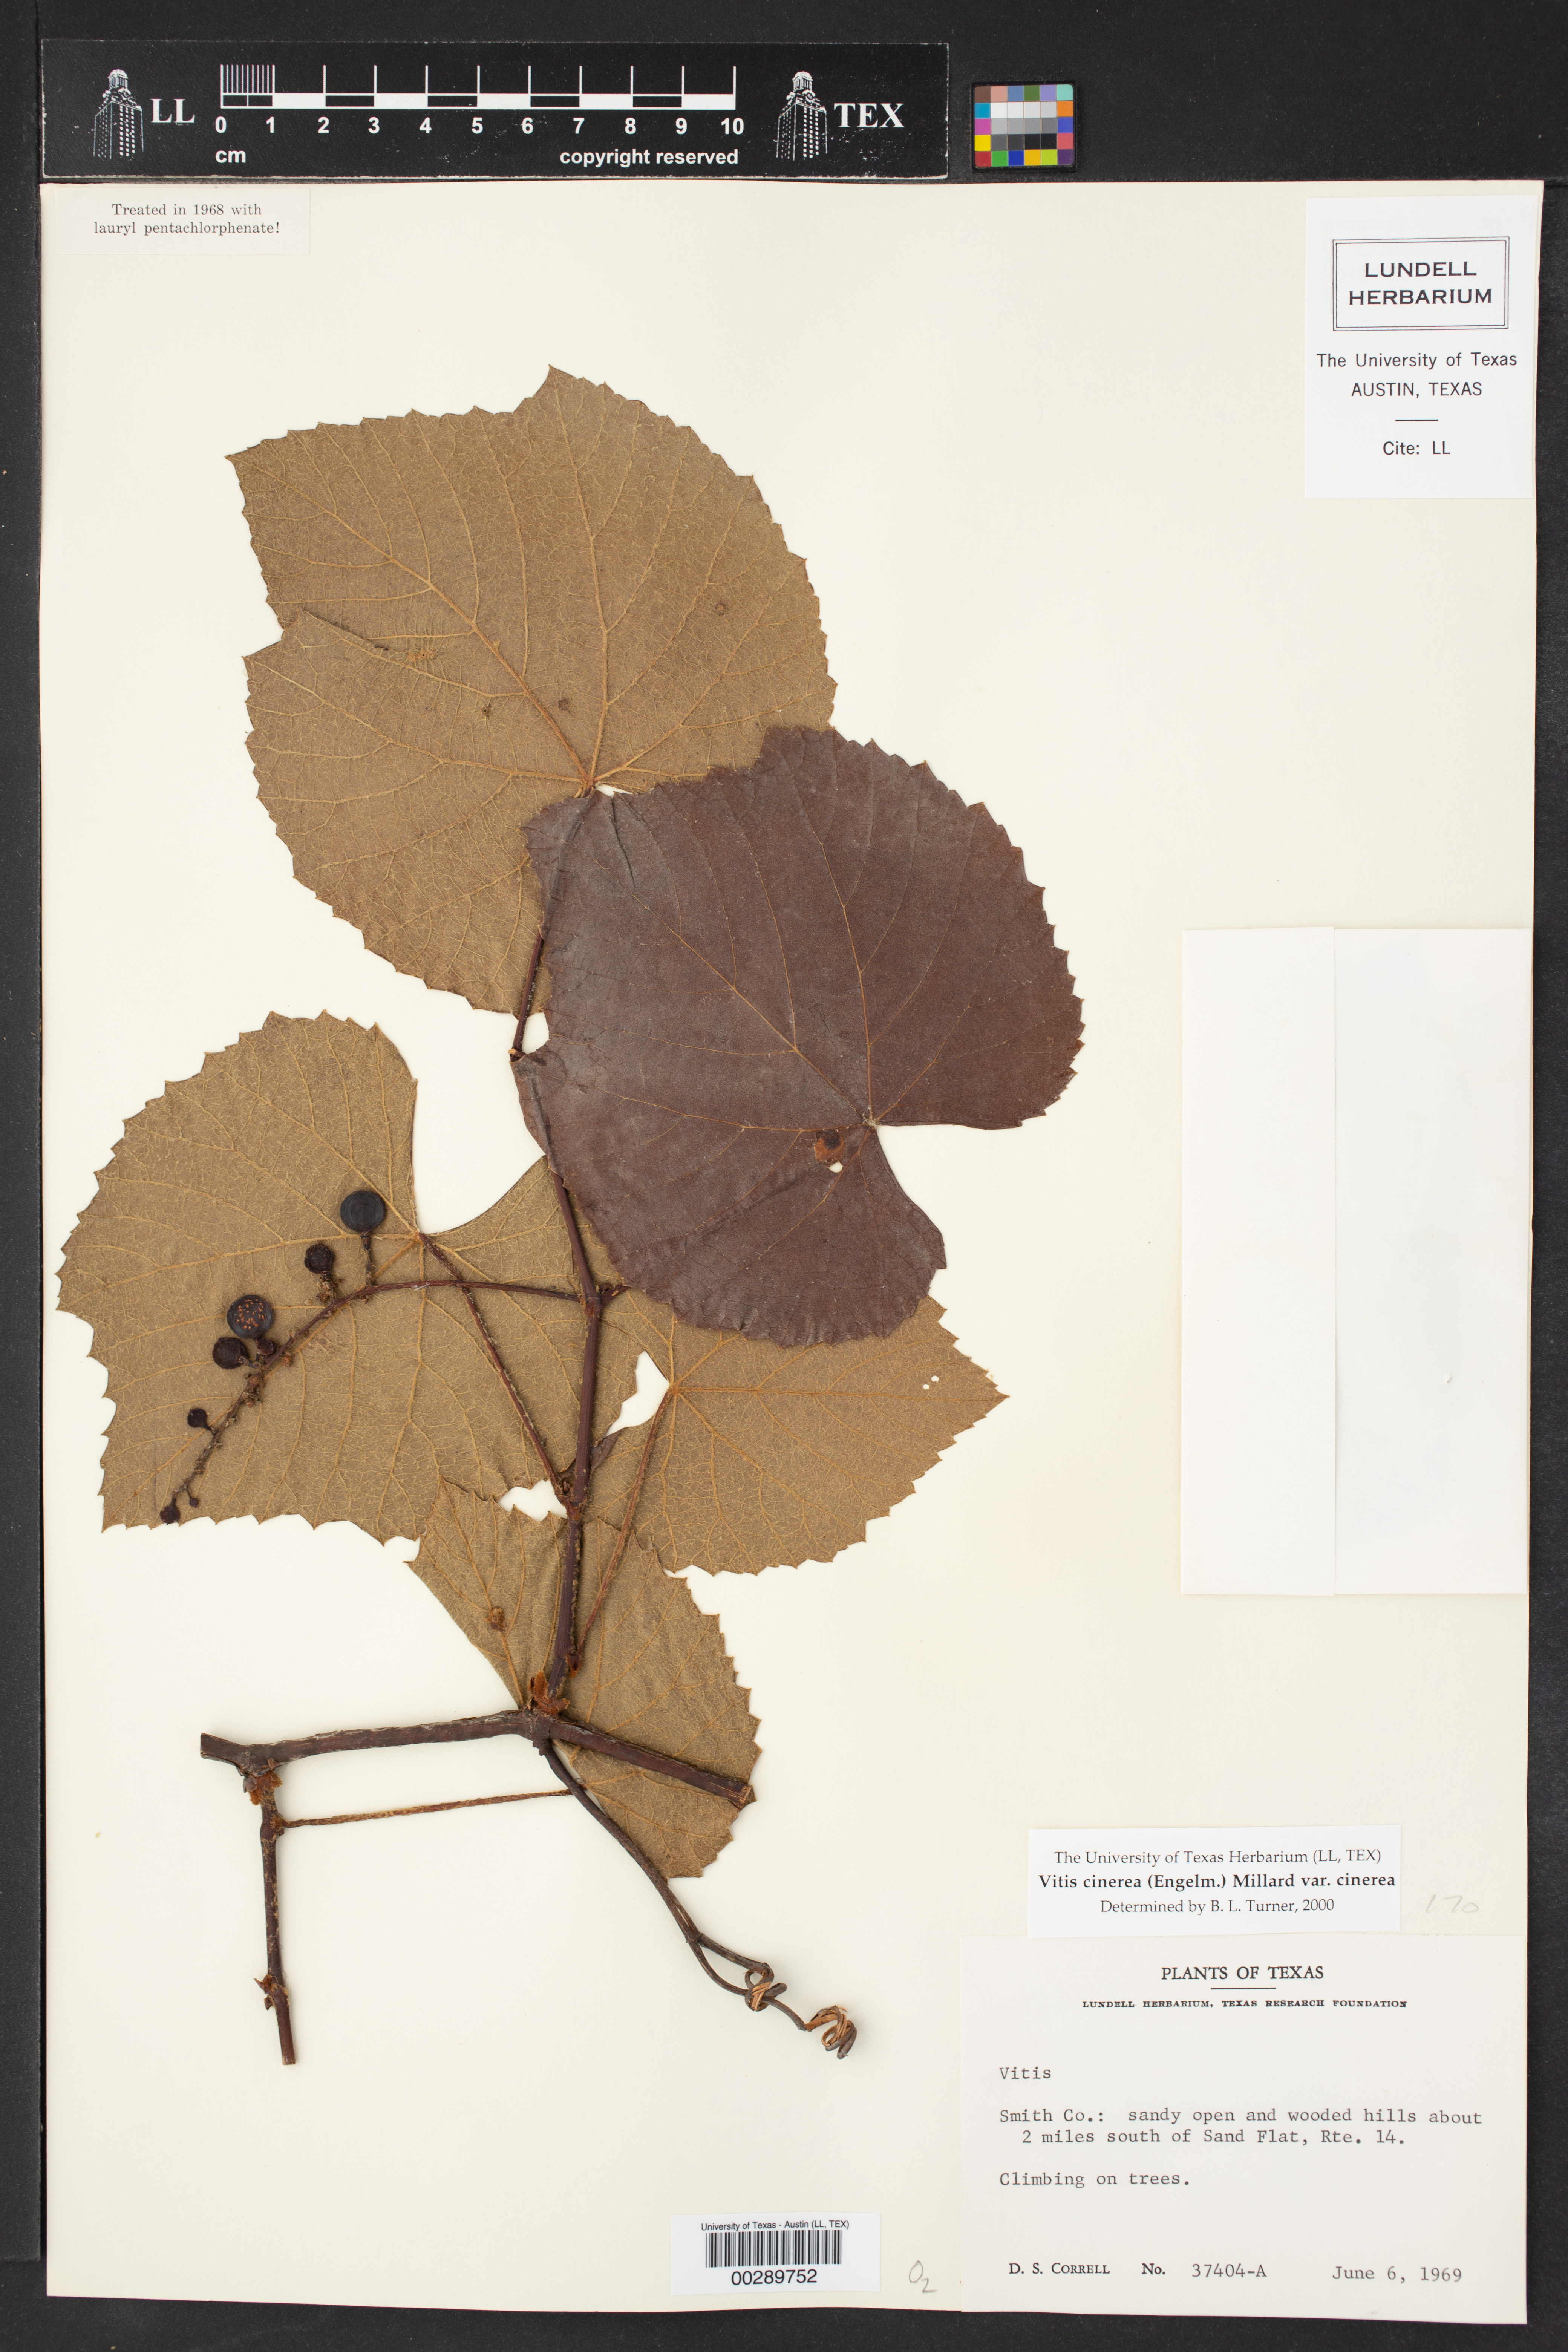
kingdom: Plantae
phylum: Tracheophyta
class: Magnoliopsida
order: Vitales
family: Vitaceae
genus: Vitis
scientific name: Vitis cinerea
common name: Ashy grape
